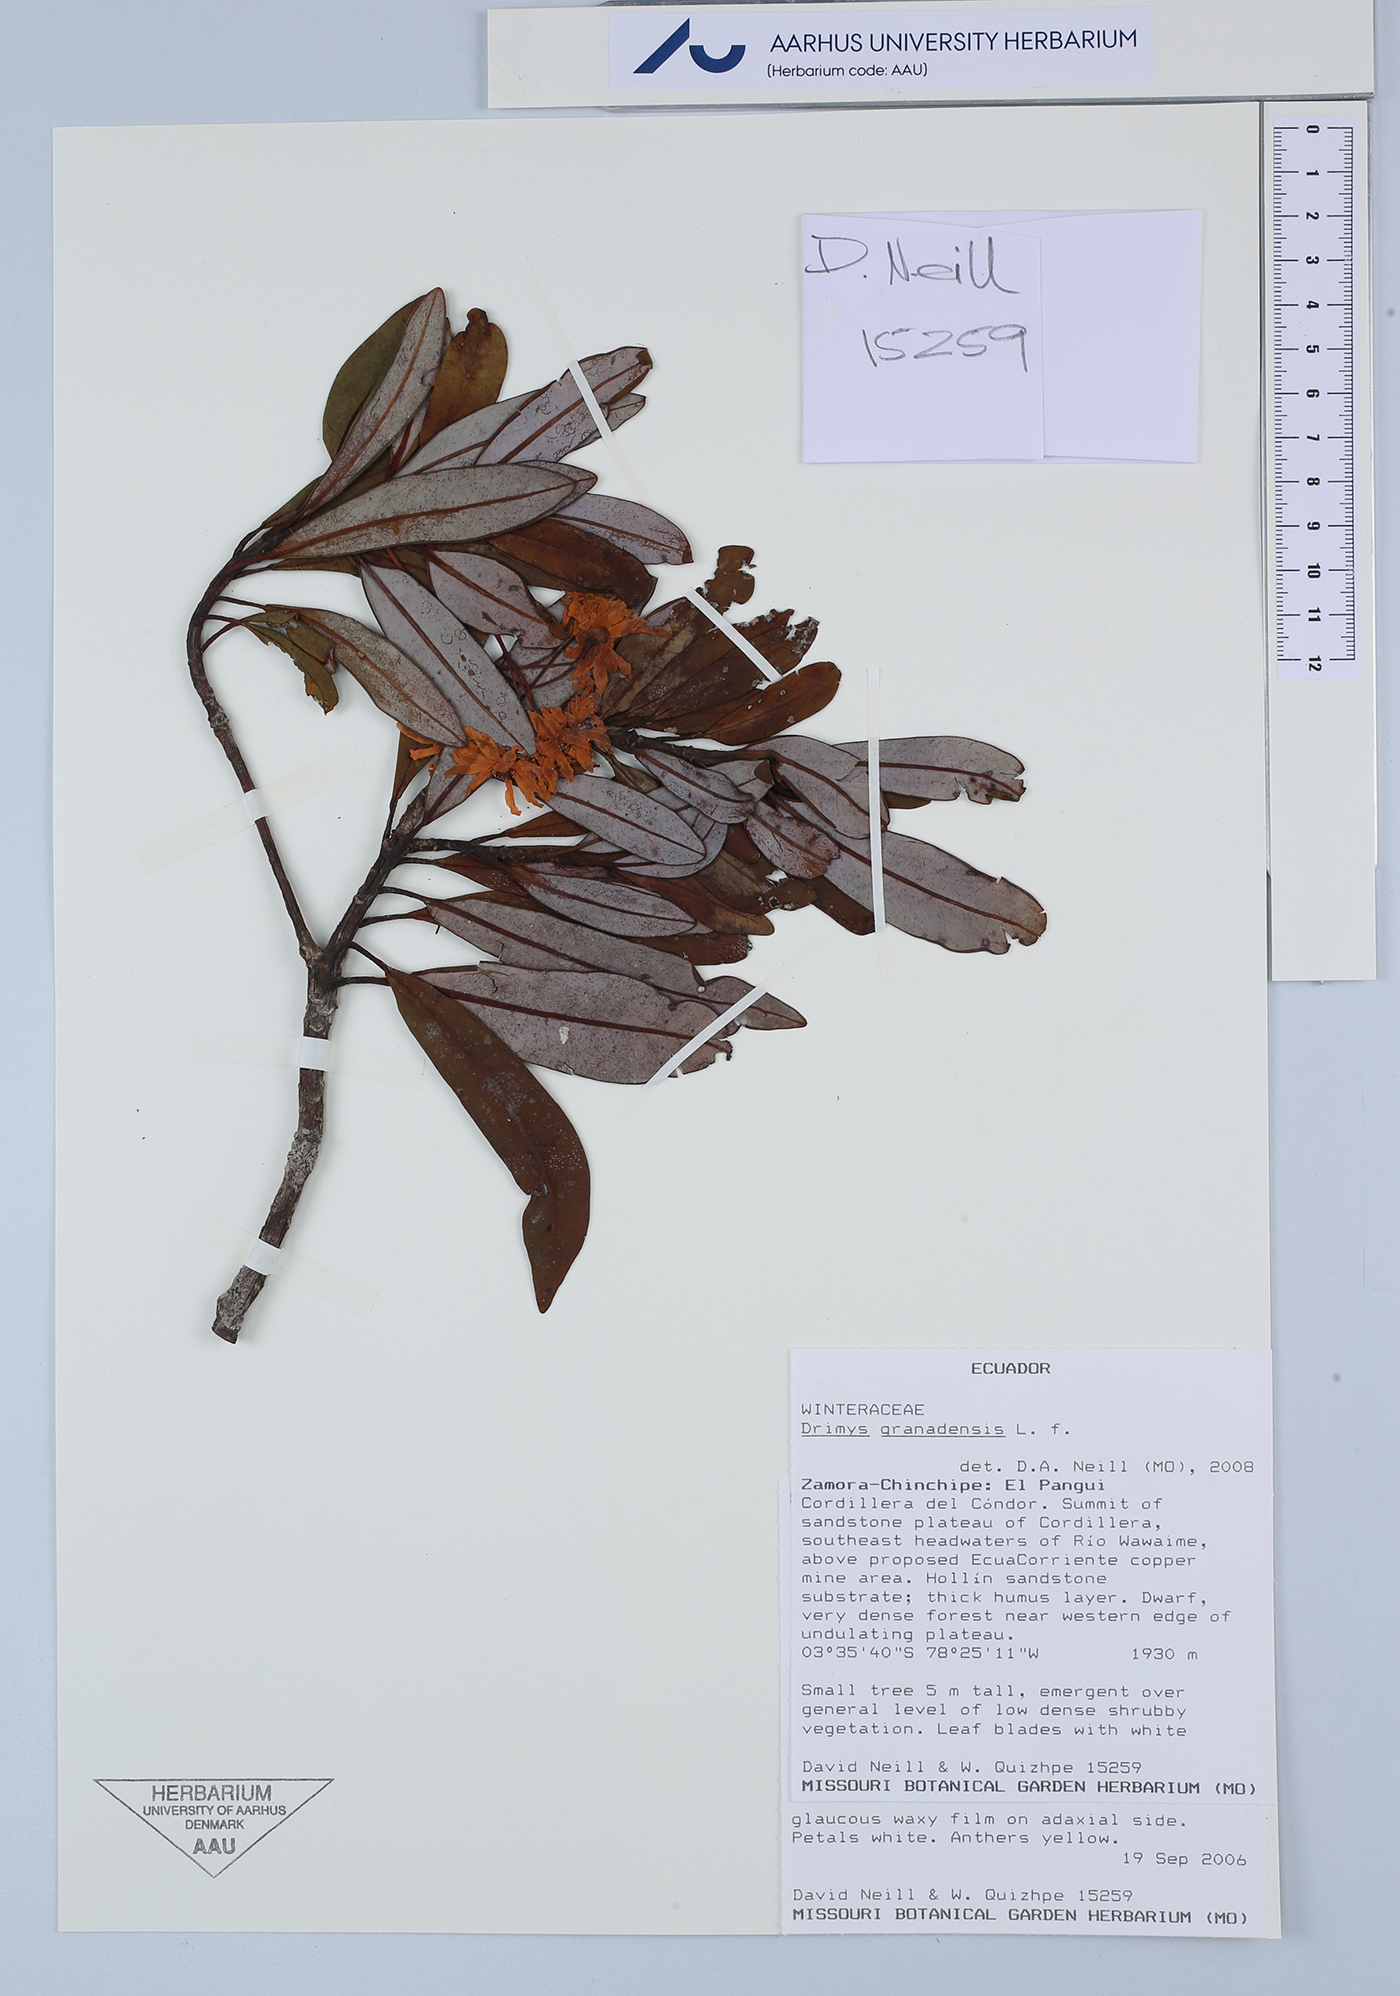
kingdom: Plantae
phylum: Tracheophyta
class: Magnoliopsida
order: Canellales
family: Winteraceae
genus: Drimys
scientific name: Drimys granadensis
